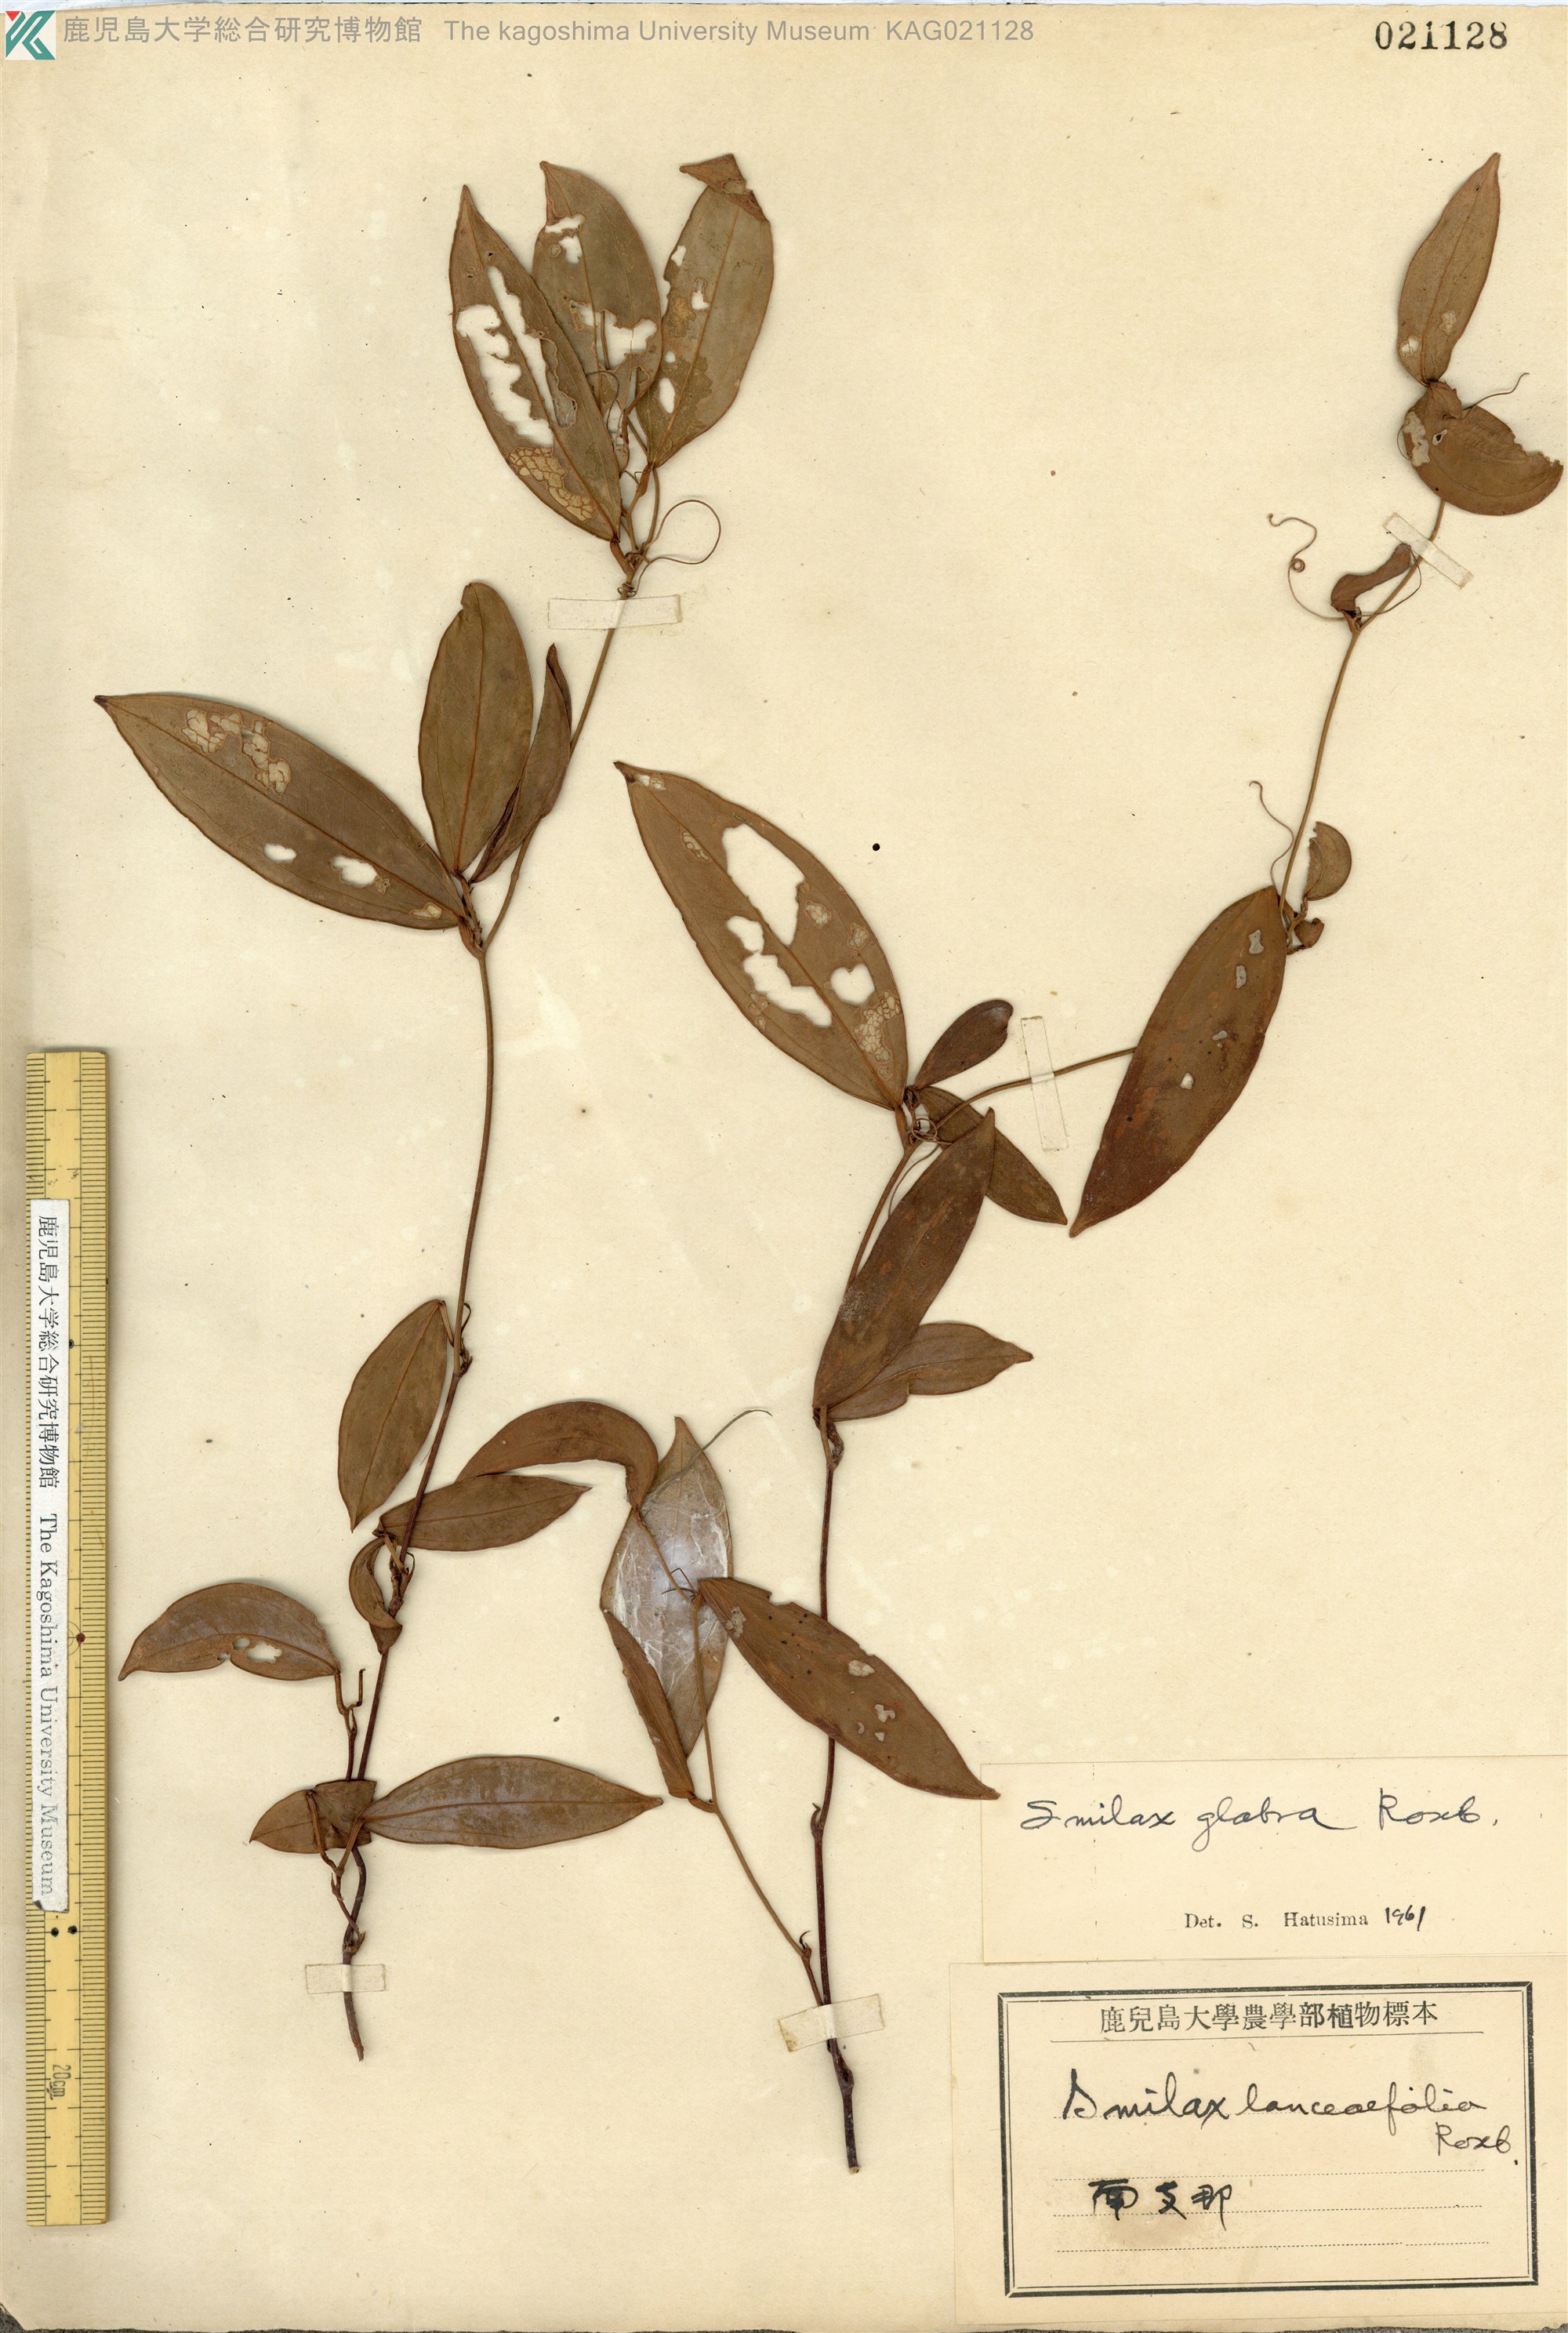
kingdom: Plantae
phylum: Tracheophyta
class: Liliopsida
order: Liliales
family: Smilacaceae
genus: Smilax
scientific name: Smilax glabra
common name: Chinese smilax
